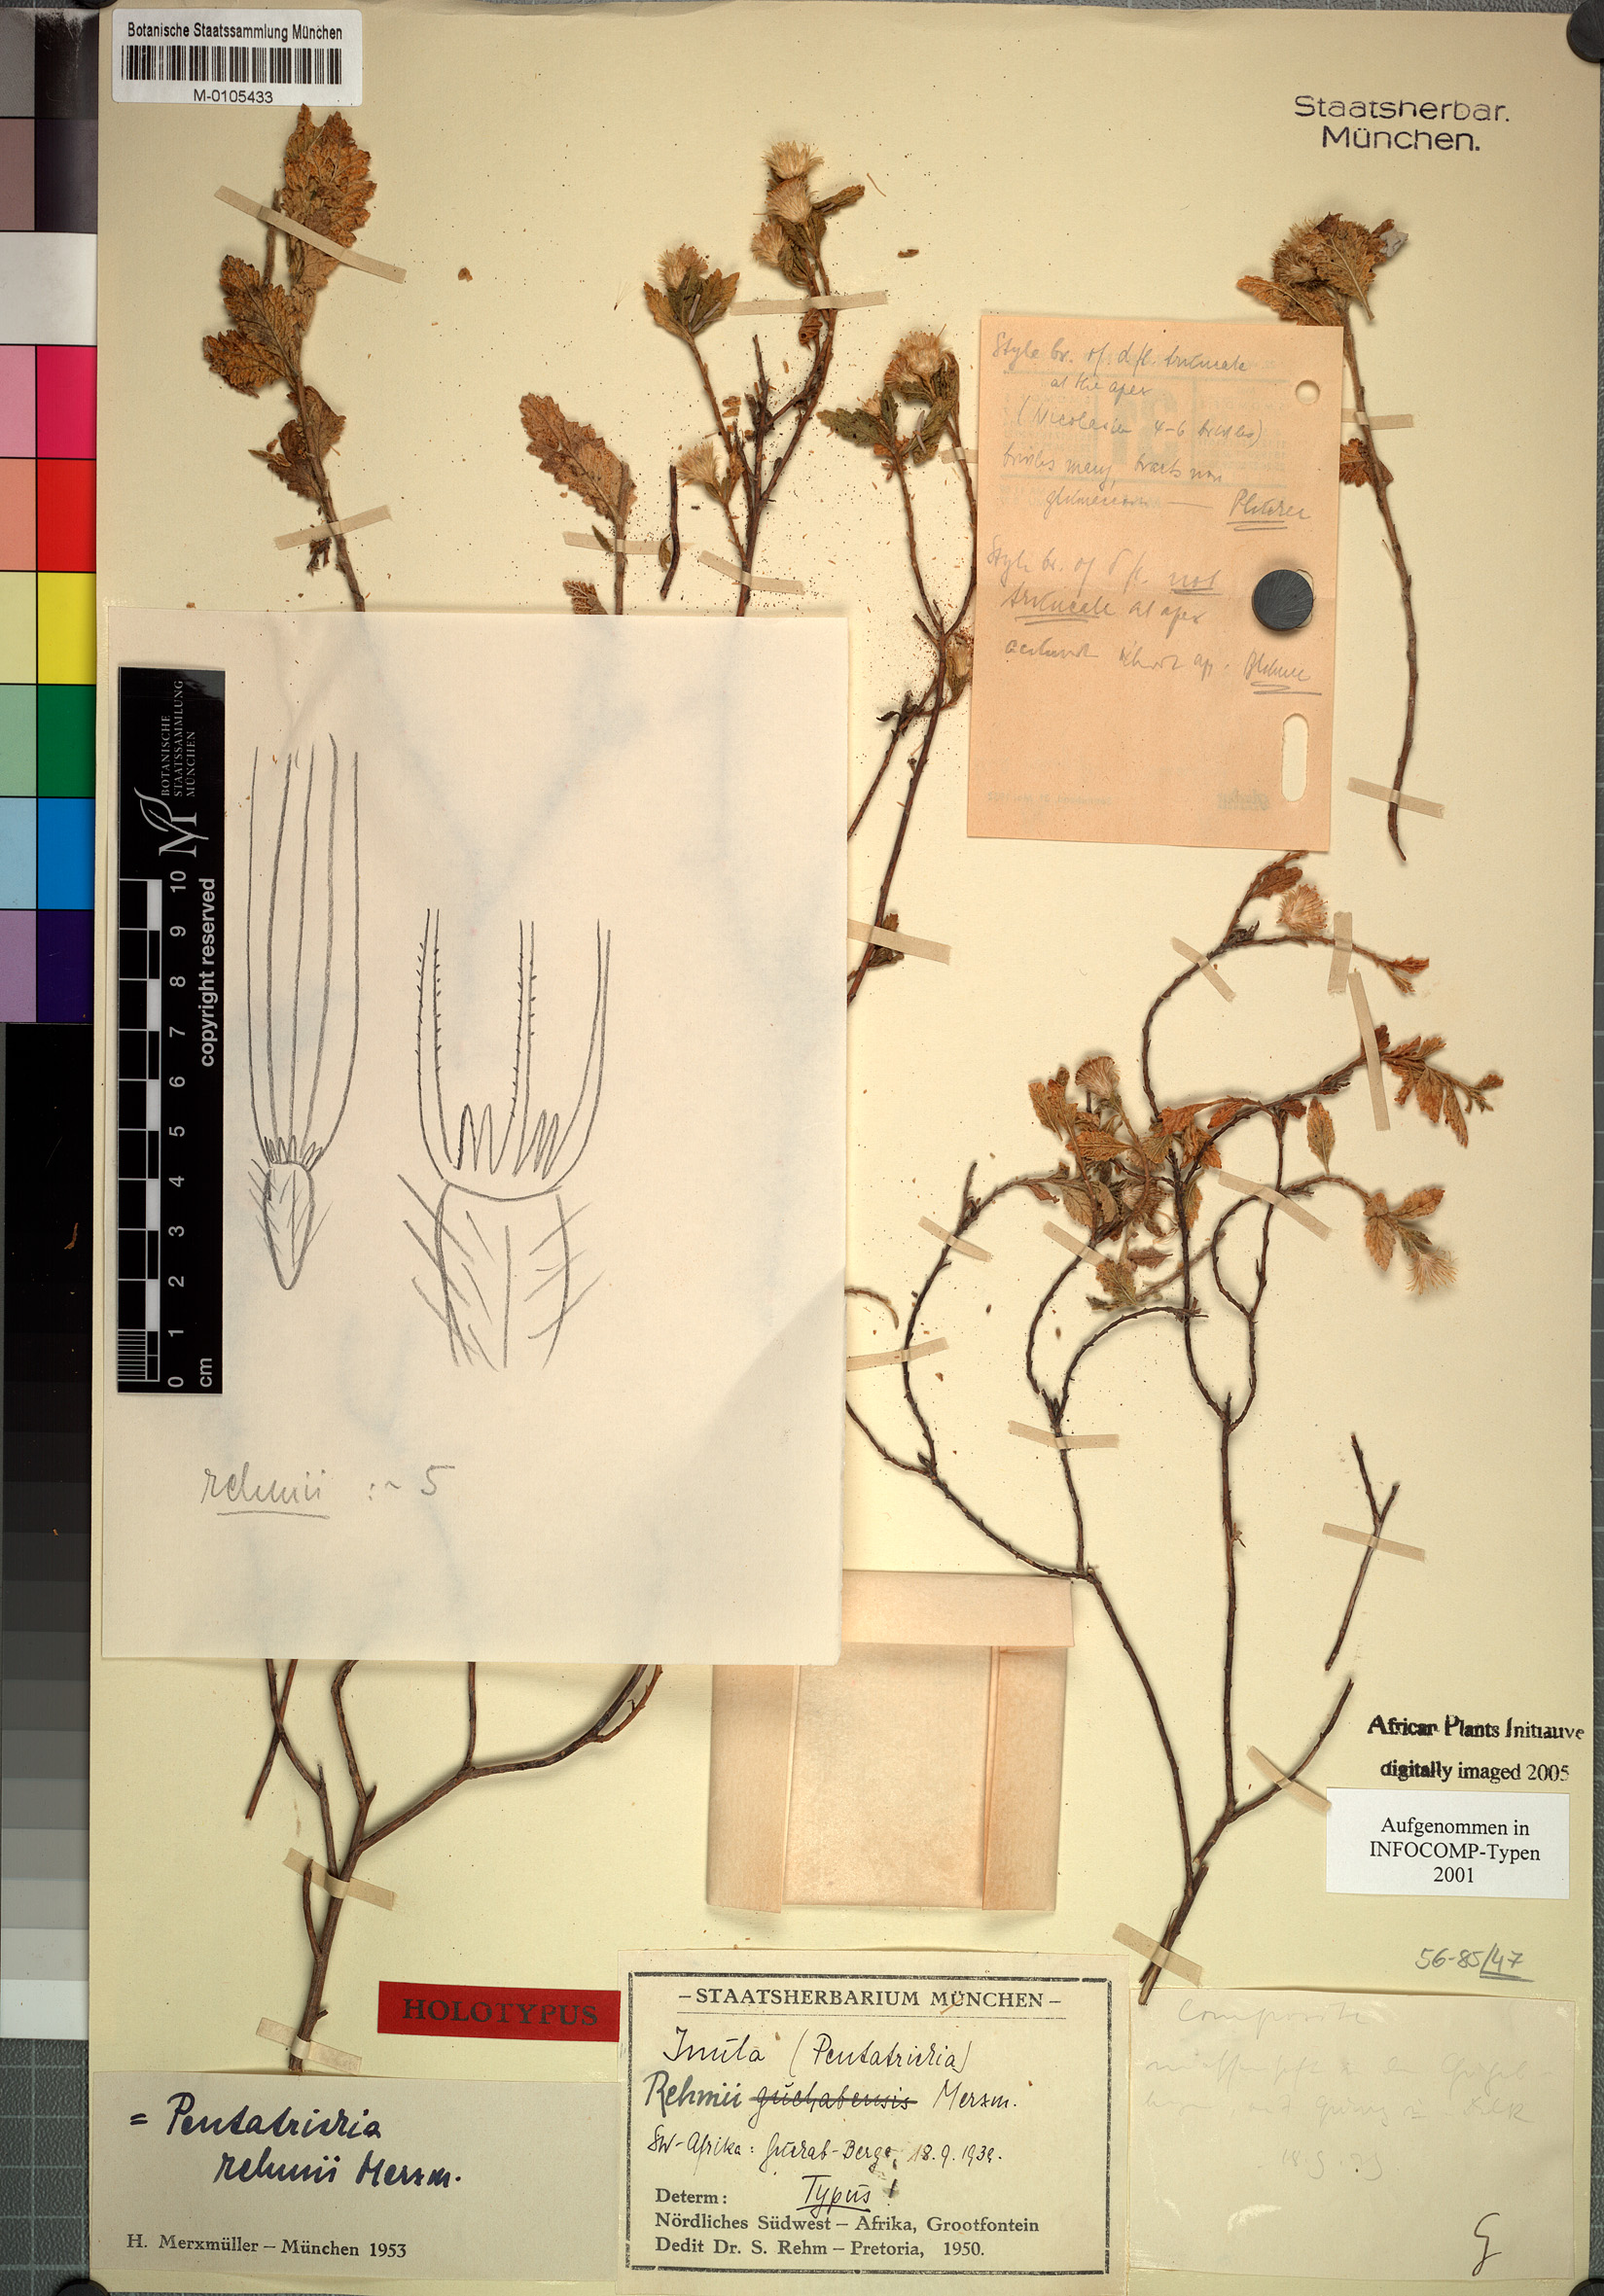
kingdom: Plantae
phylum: Tracheophyta
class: Magnoliopsida
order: Asterales
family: Asteraceae
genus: Pentatrichia
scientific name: Pentatrichia rehmii
